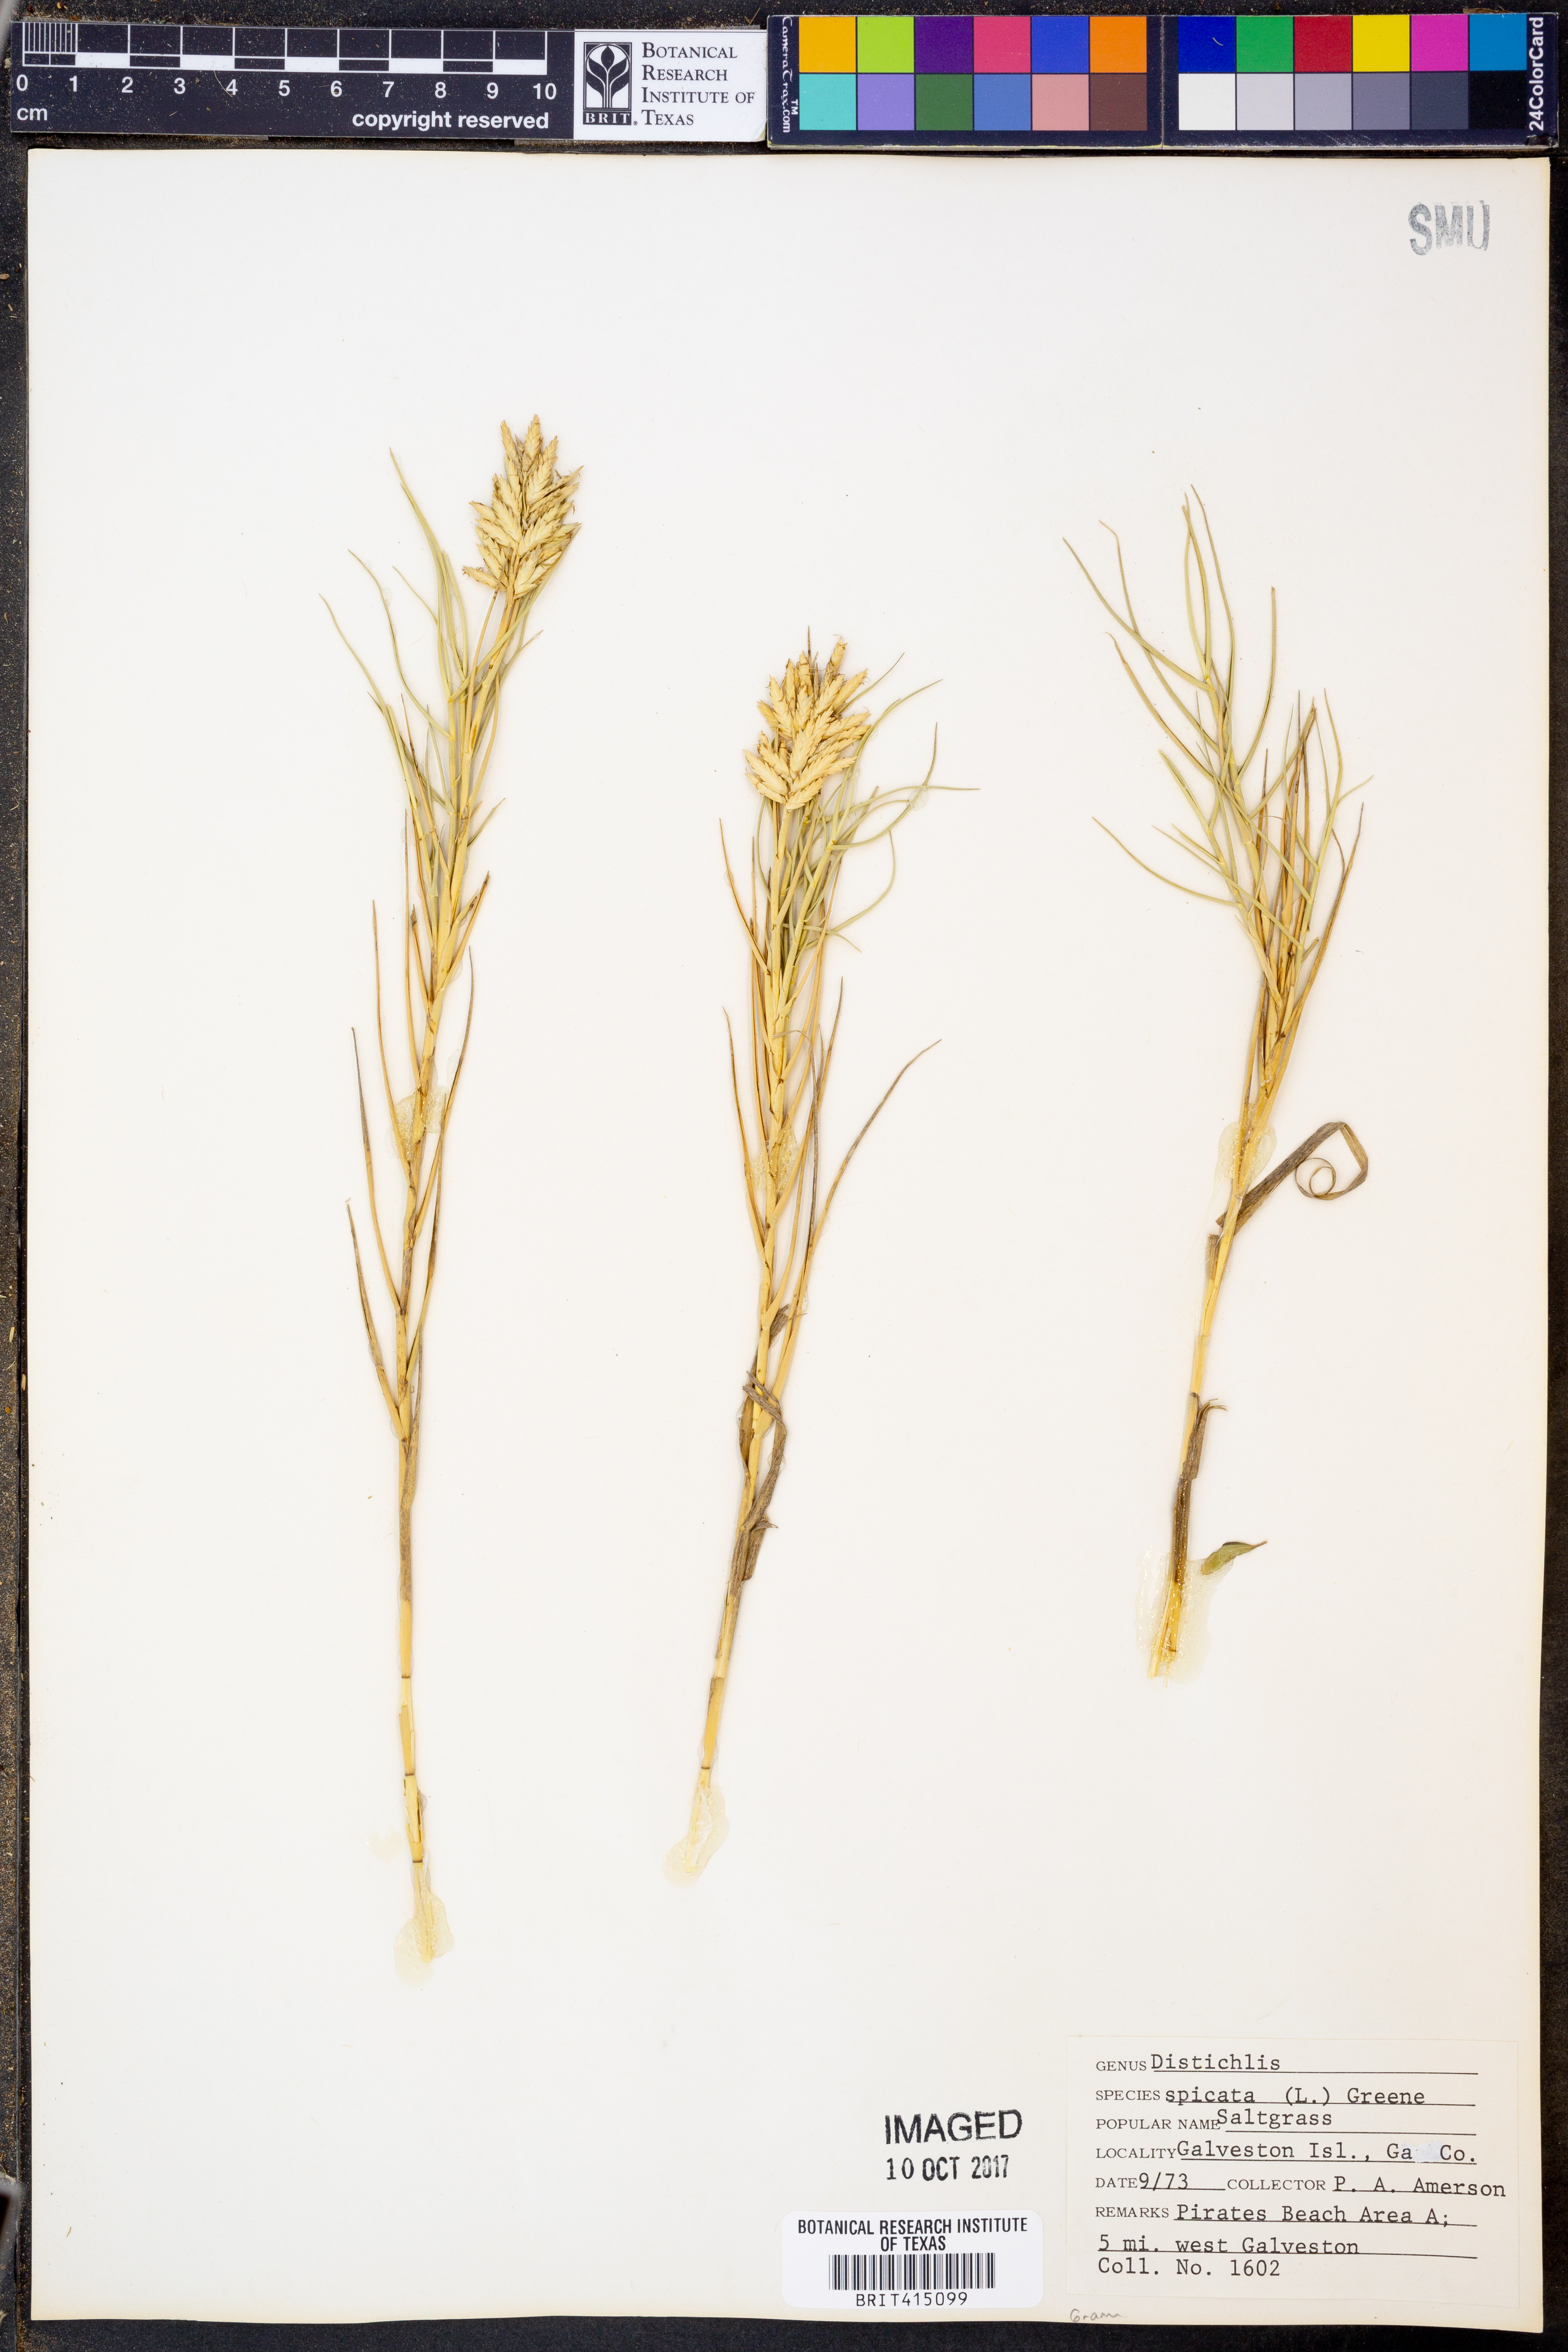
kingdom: Plantae
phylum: Tracheophyta
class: Liliopsida
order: Poales
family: Poaceae
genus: Distichlis
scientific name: Distichlis spicata
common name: Saltgrass
